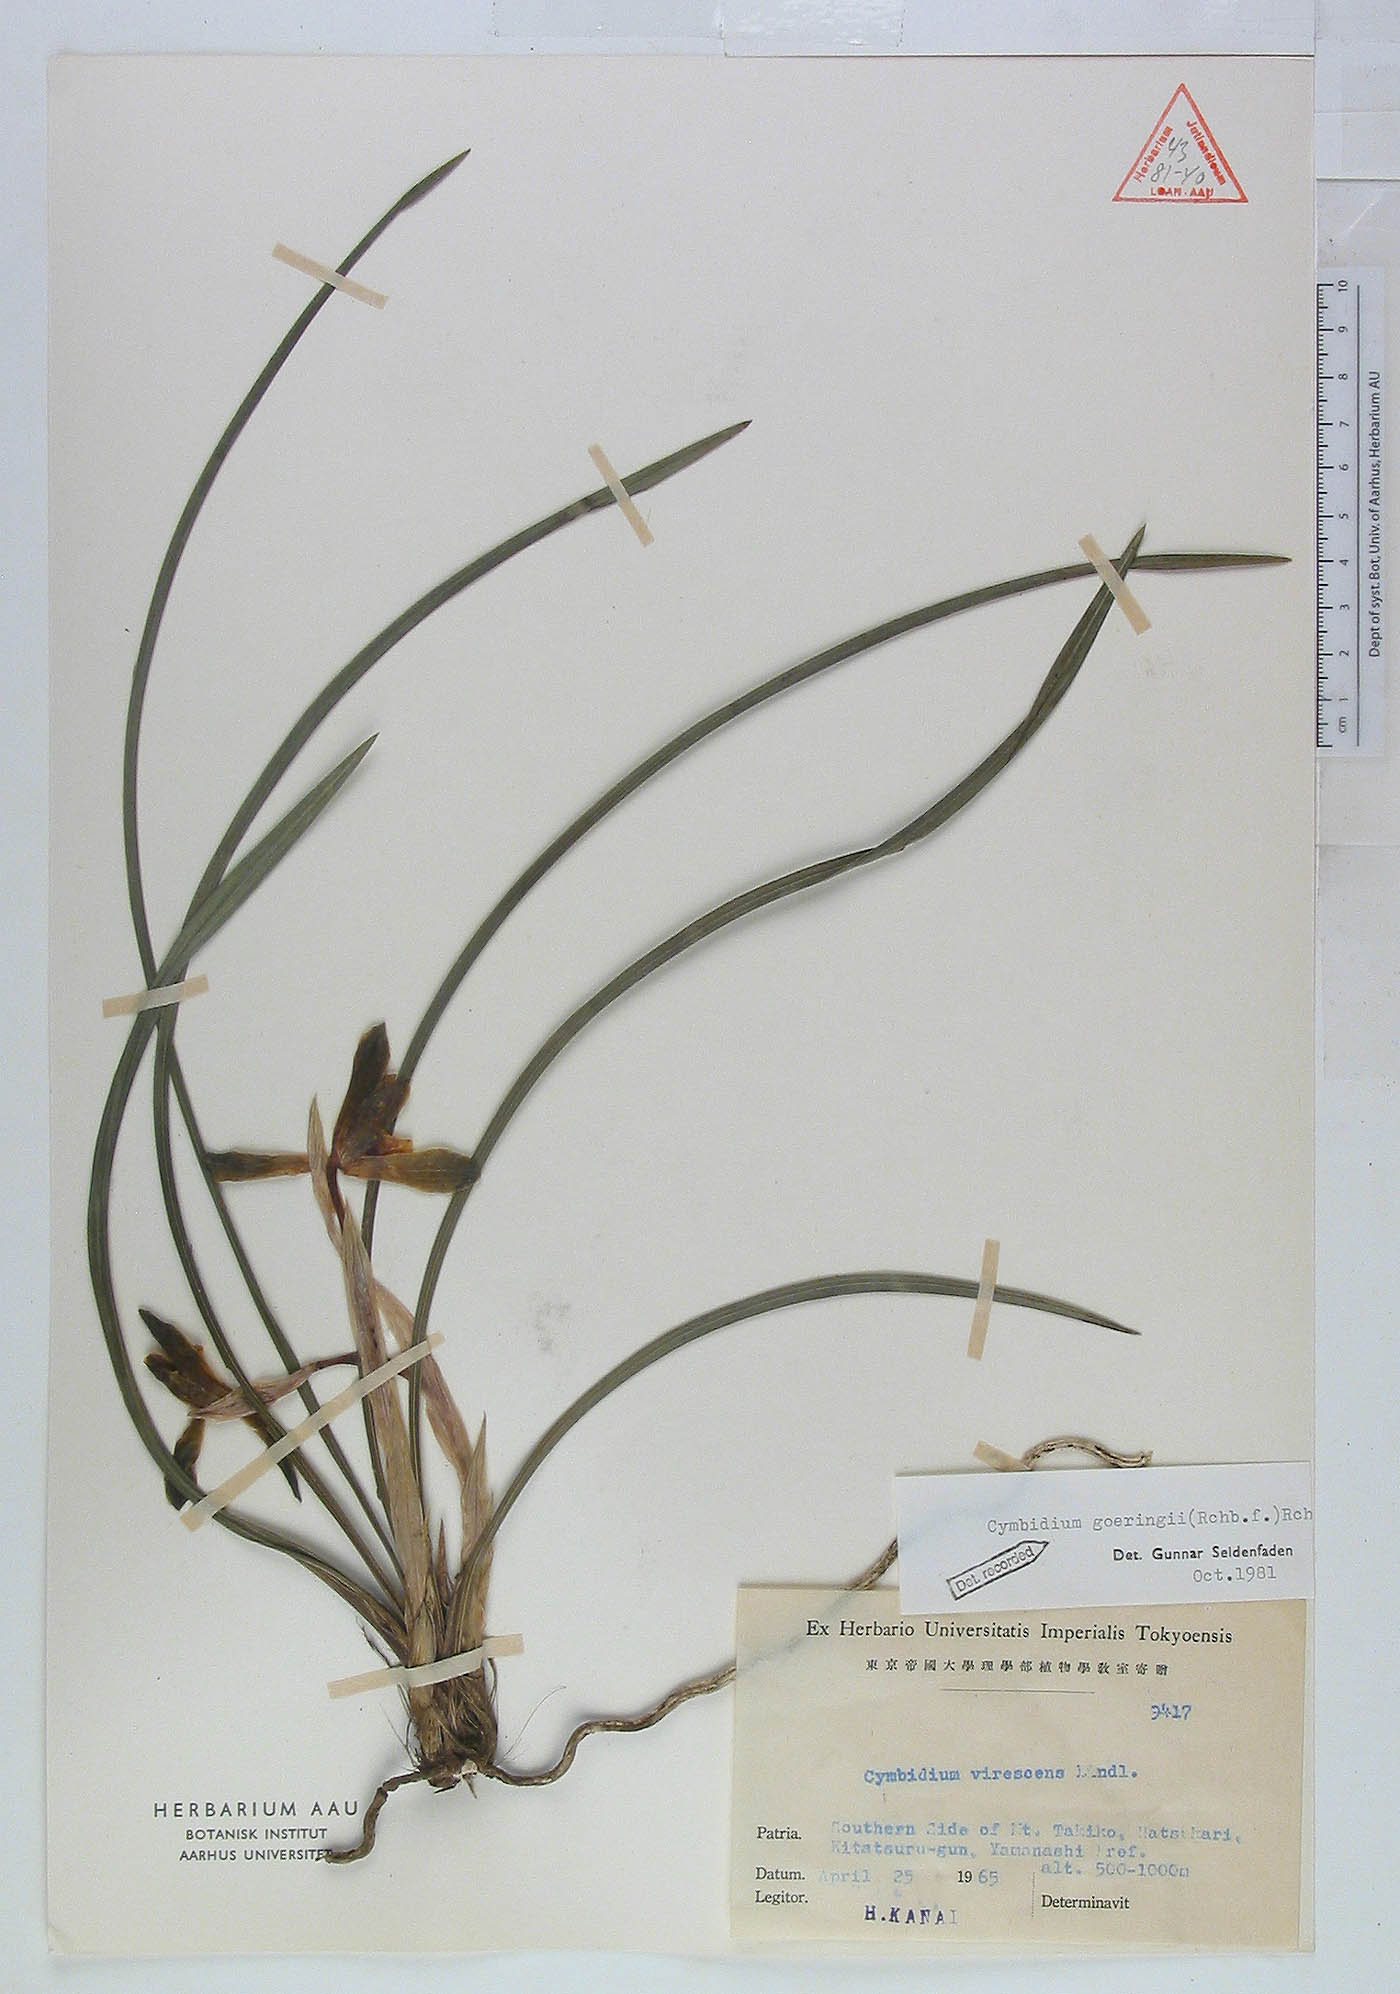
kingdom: Plantae
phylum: Tracheophyta
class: Liliopsida
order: Asparagales
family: Orchidaceae
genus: Cymbidium
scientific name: Cymbidium goeringii
